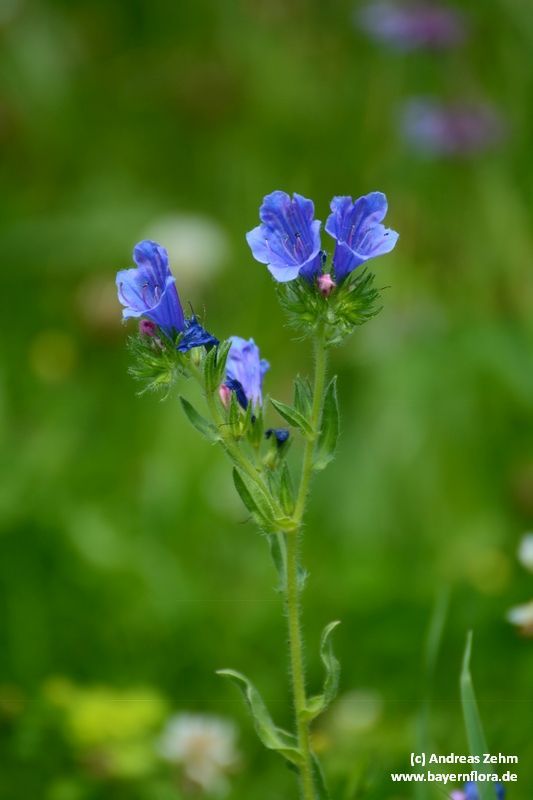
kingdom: Plantae
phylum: Tracheophyta
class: Magnoliopsida
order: Boraginales
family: Boraginaceae
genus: Echium
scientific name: Echium plantagineum
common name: Purple viper's-bugloss
